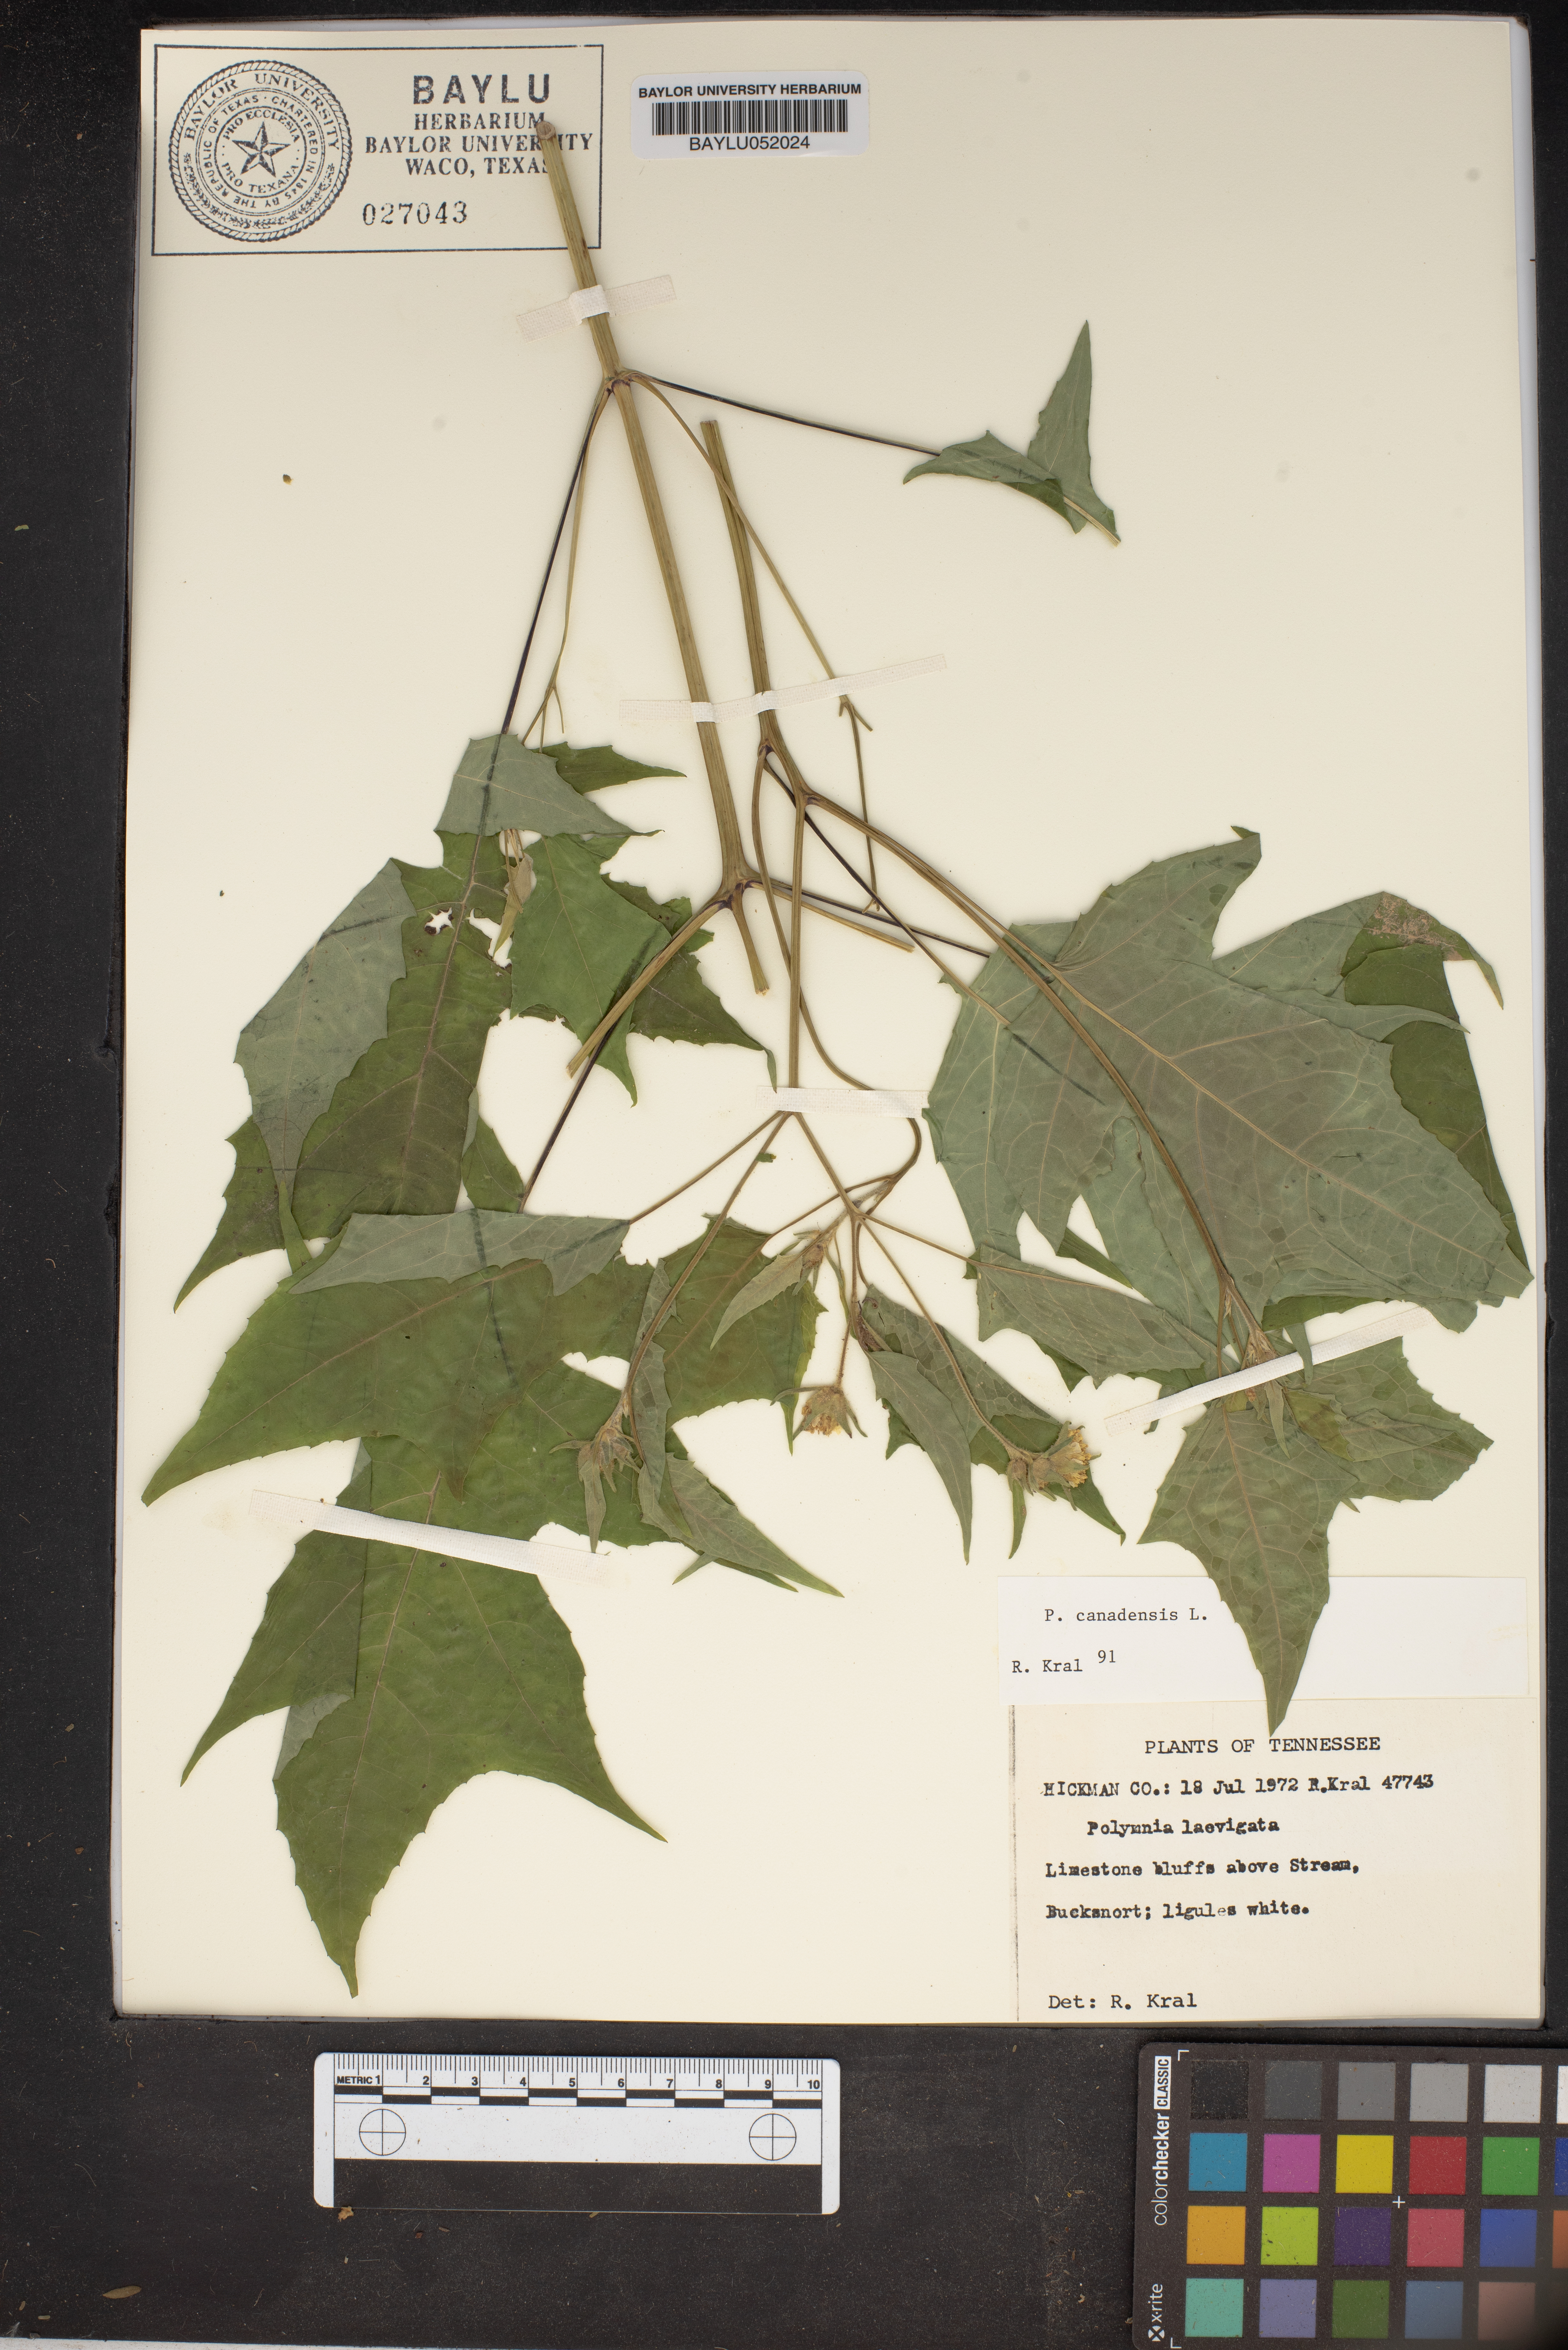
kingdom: Plantae
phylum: Tracheophyta
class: Magnoliopsida
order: Asterales
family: Asteraceae
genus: Polymnia
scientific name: Polymnia canadensis
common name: Pale-flowered leafcup
